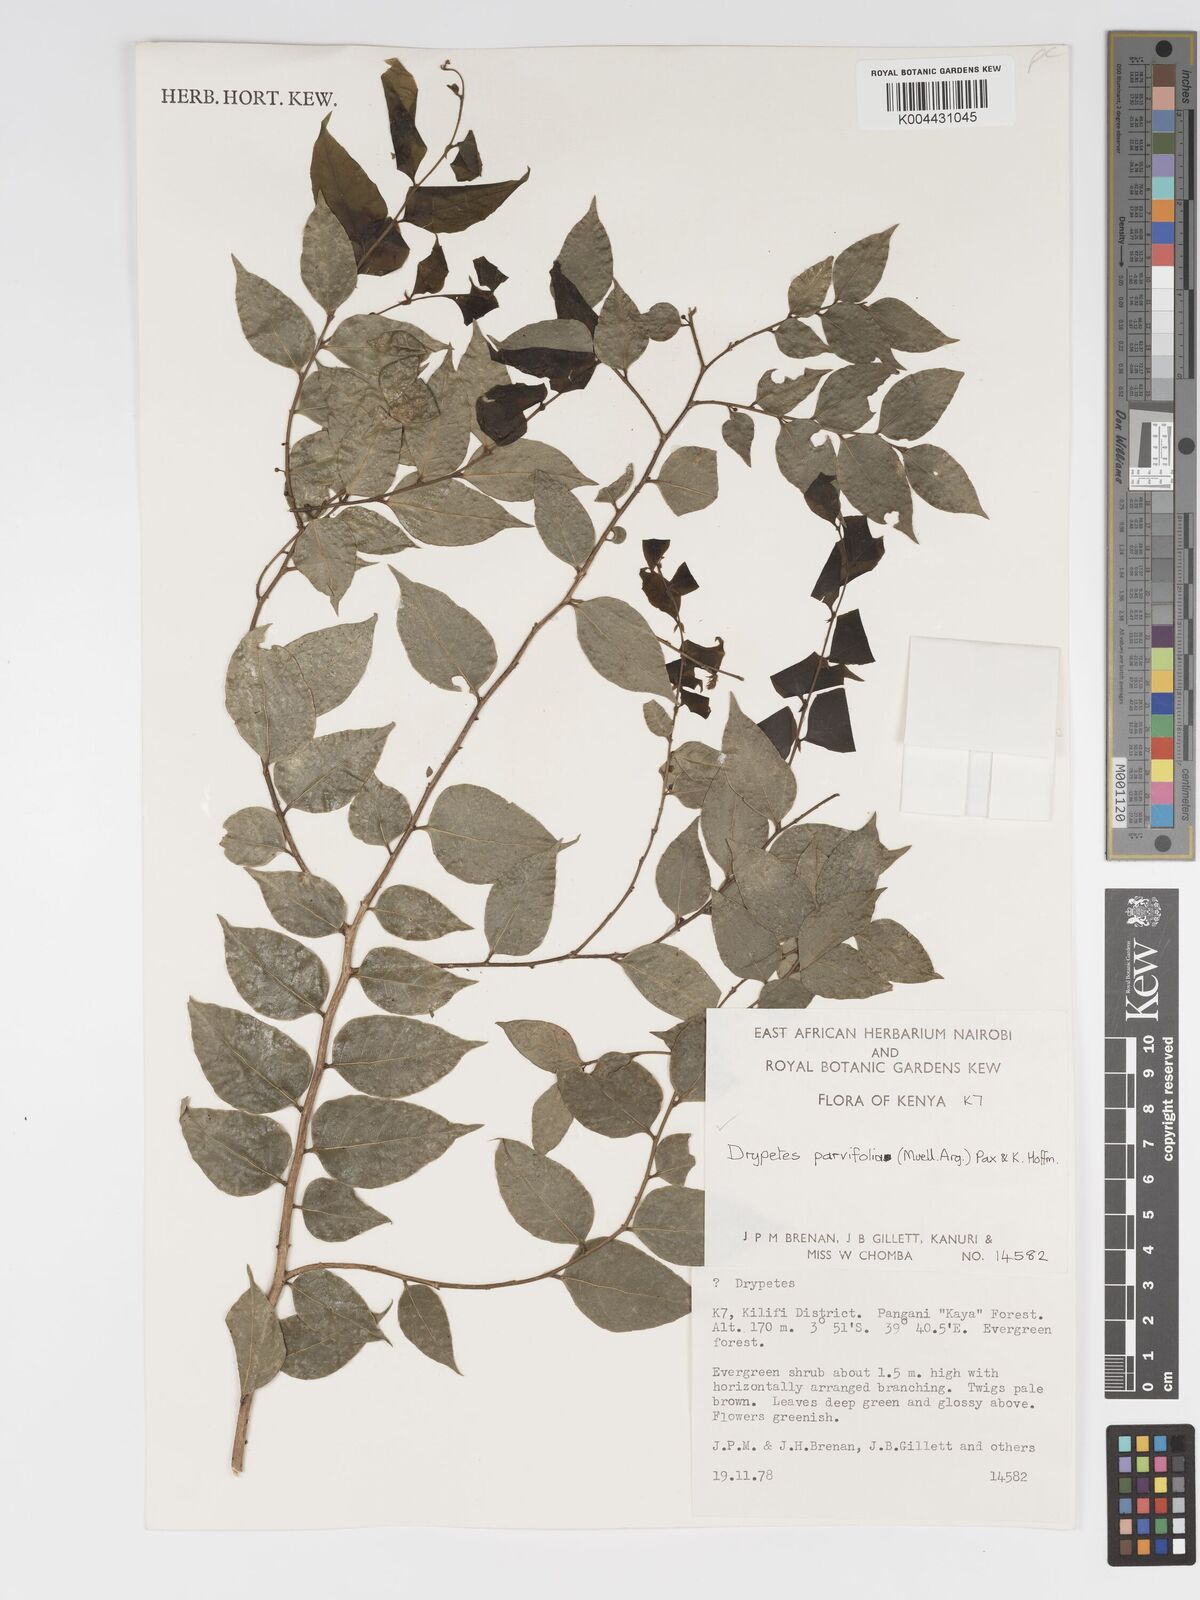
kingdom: Plantae
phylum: Tracheophyta
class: Magnoliopsida
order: Malpighiales
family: Putranjivaceae
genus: Drypetes
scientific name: Drypetes parvifolia
